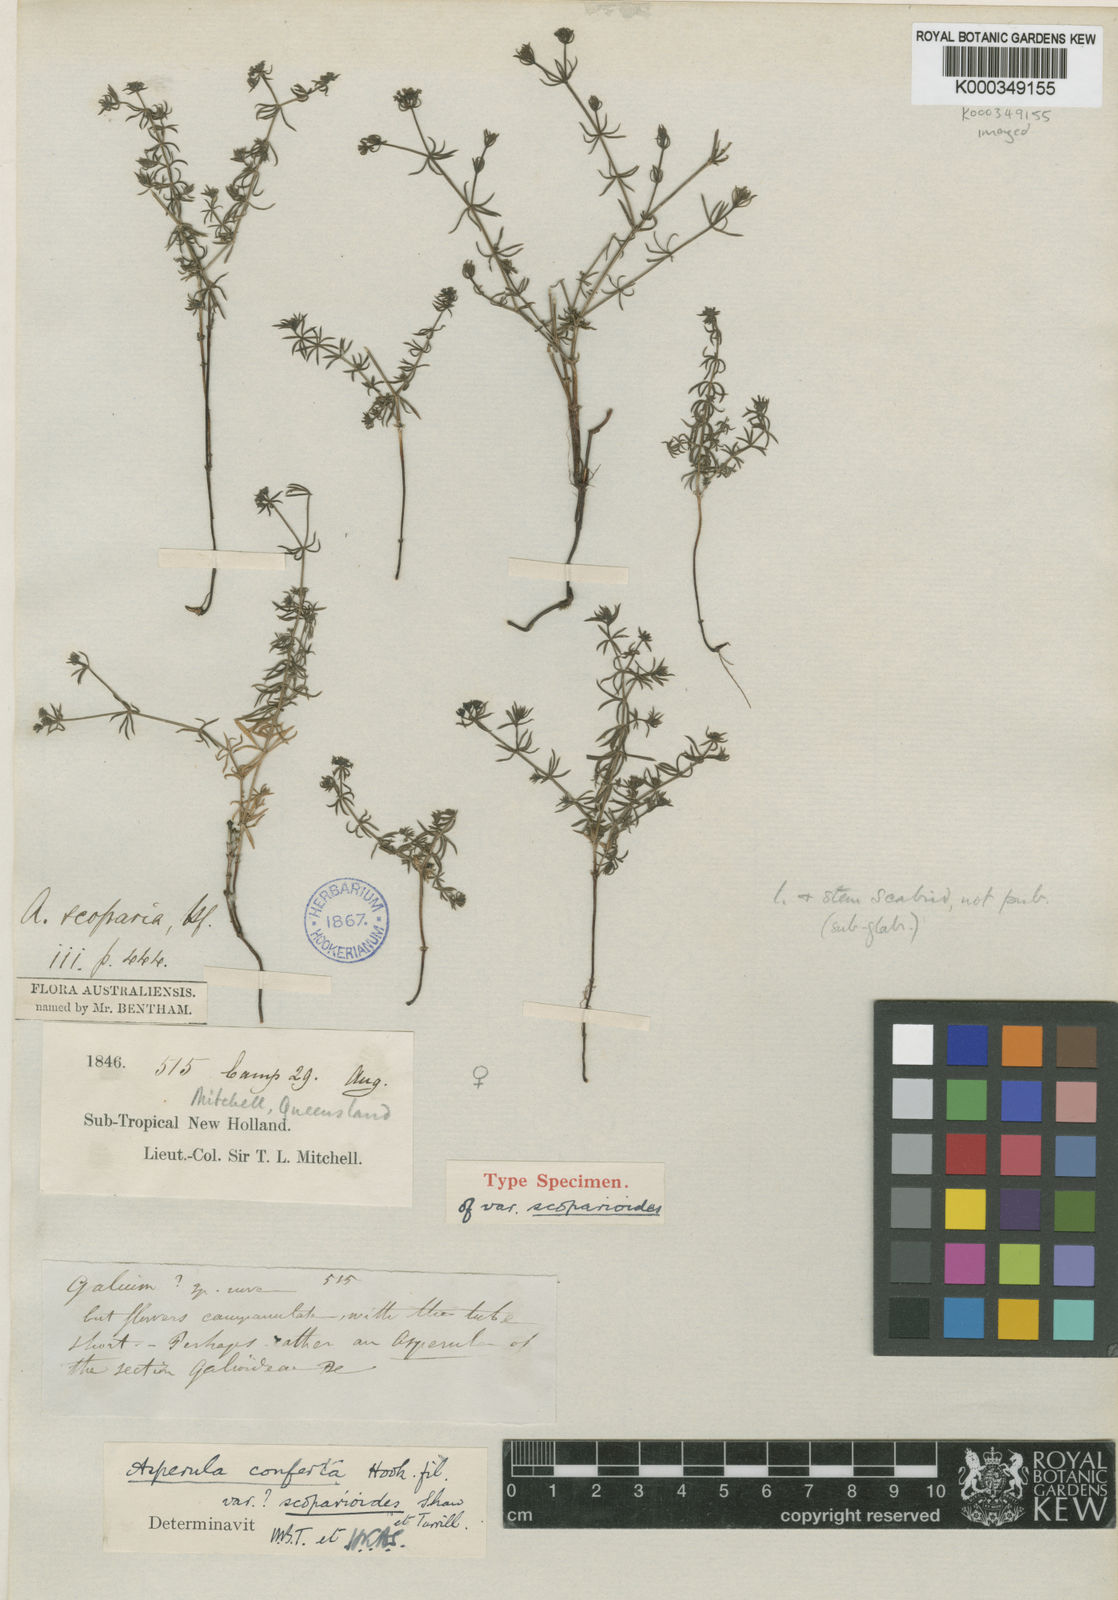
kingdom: Plantae
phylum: Tracheophyta
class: Magnoliopsida
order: Gentianales
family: Rubiaceae
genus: Asperula
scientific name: Asperula conferta
